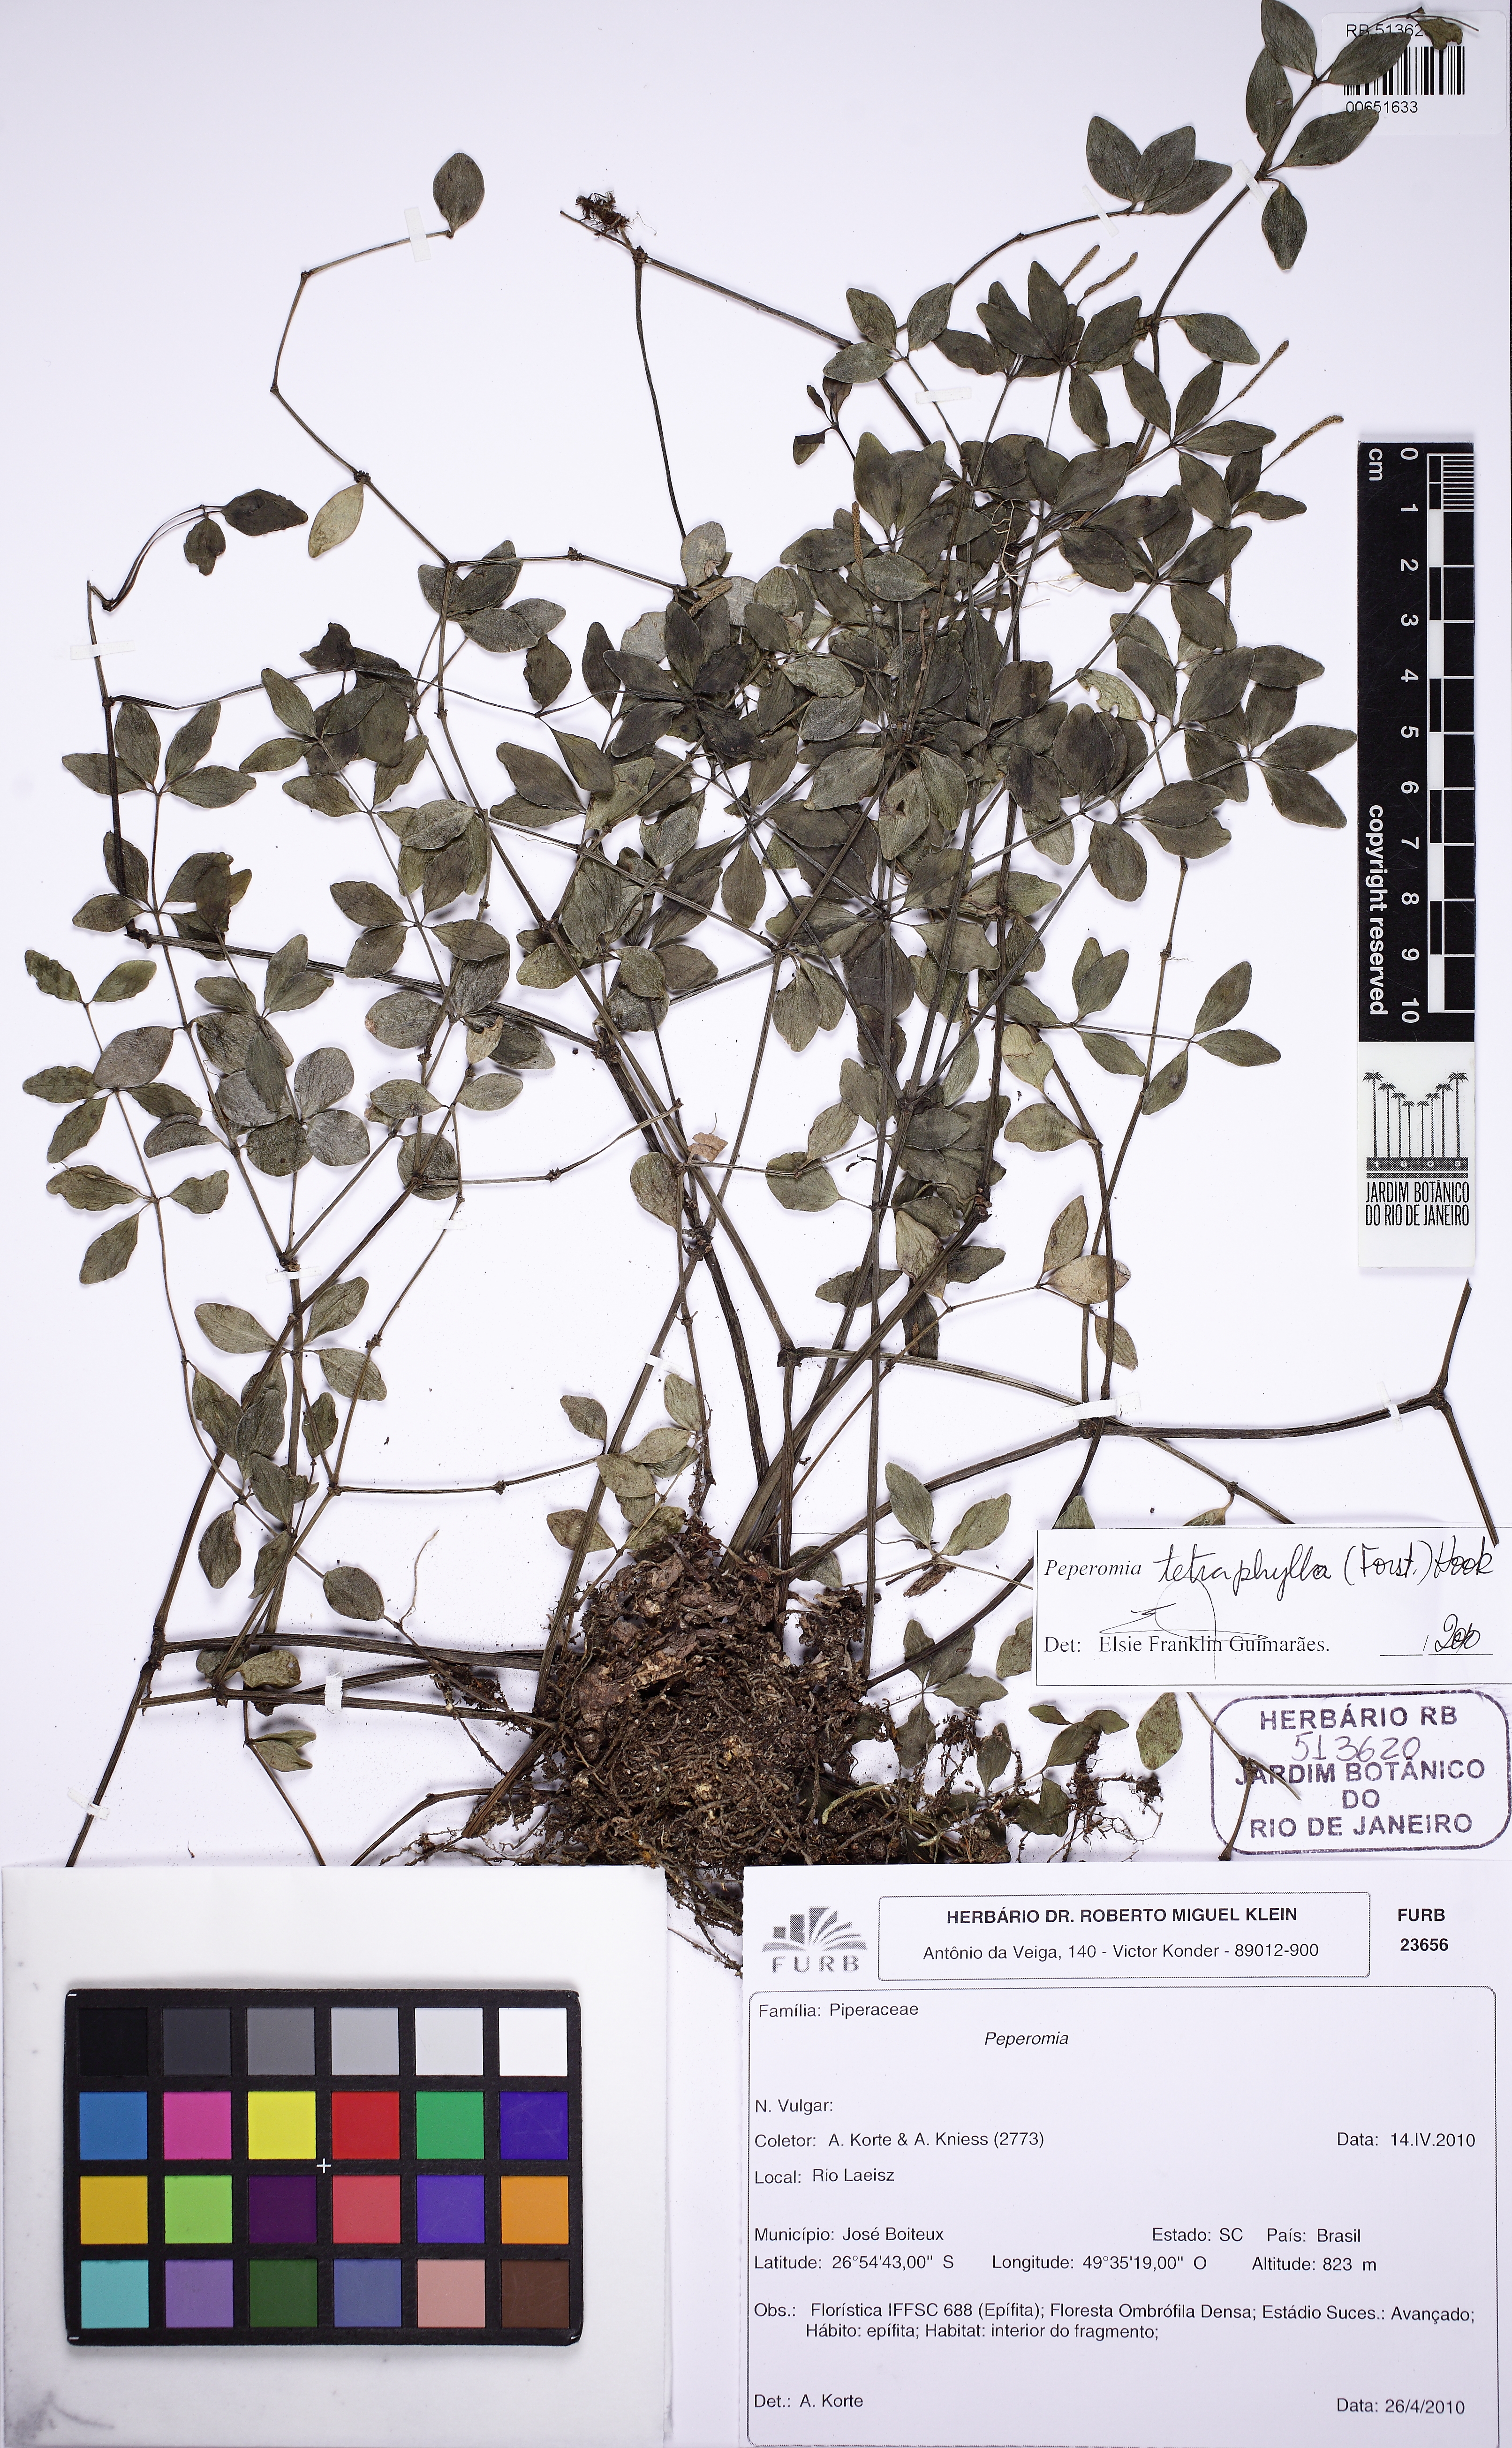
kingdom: Plantae
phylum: Tracheophyta
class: Magnoliopsida
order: Piperales
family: Piperaceae
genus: Peperomia
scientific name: Peperomia tetraphylla
